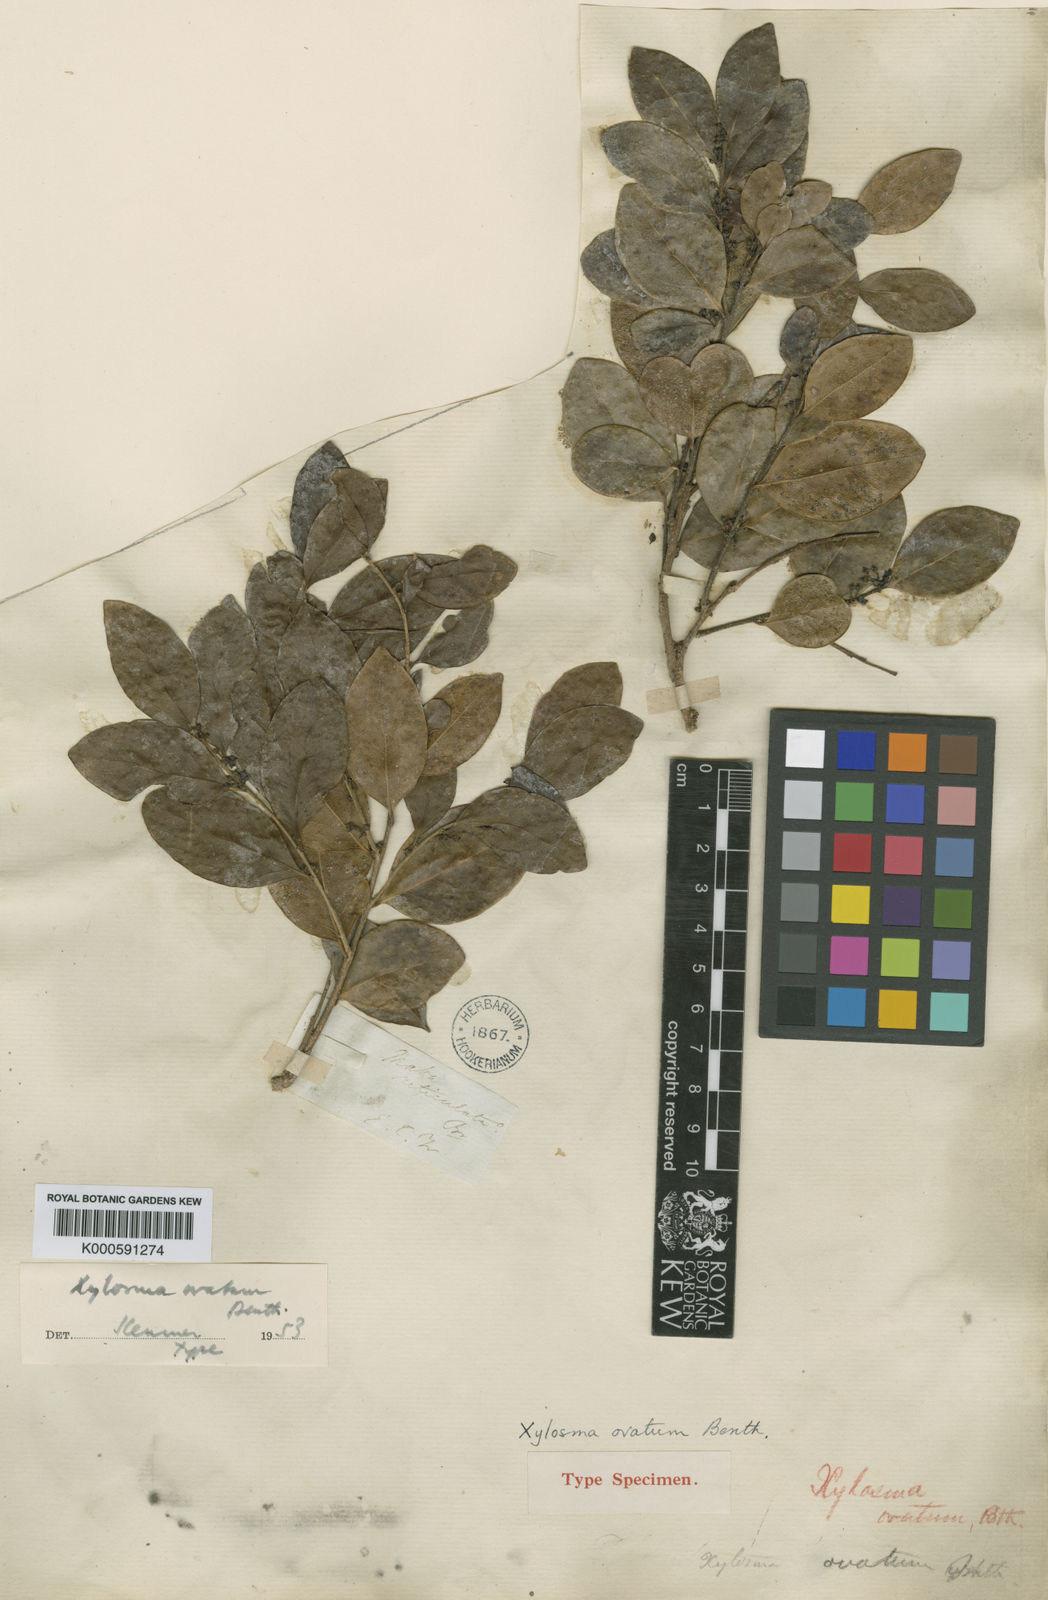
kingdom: Plantae
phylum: Tracheophyta
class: Magnoliopsida
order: Malpighiales
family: Salicaceae
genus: Xylosma
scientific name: Xylosma ovata
